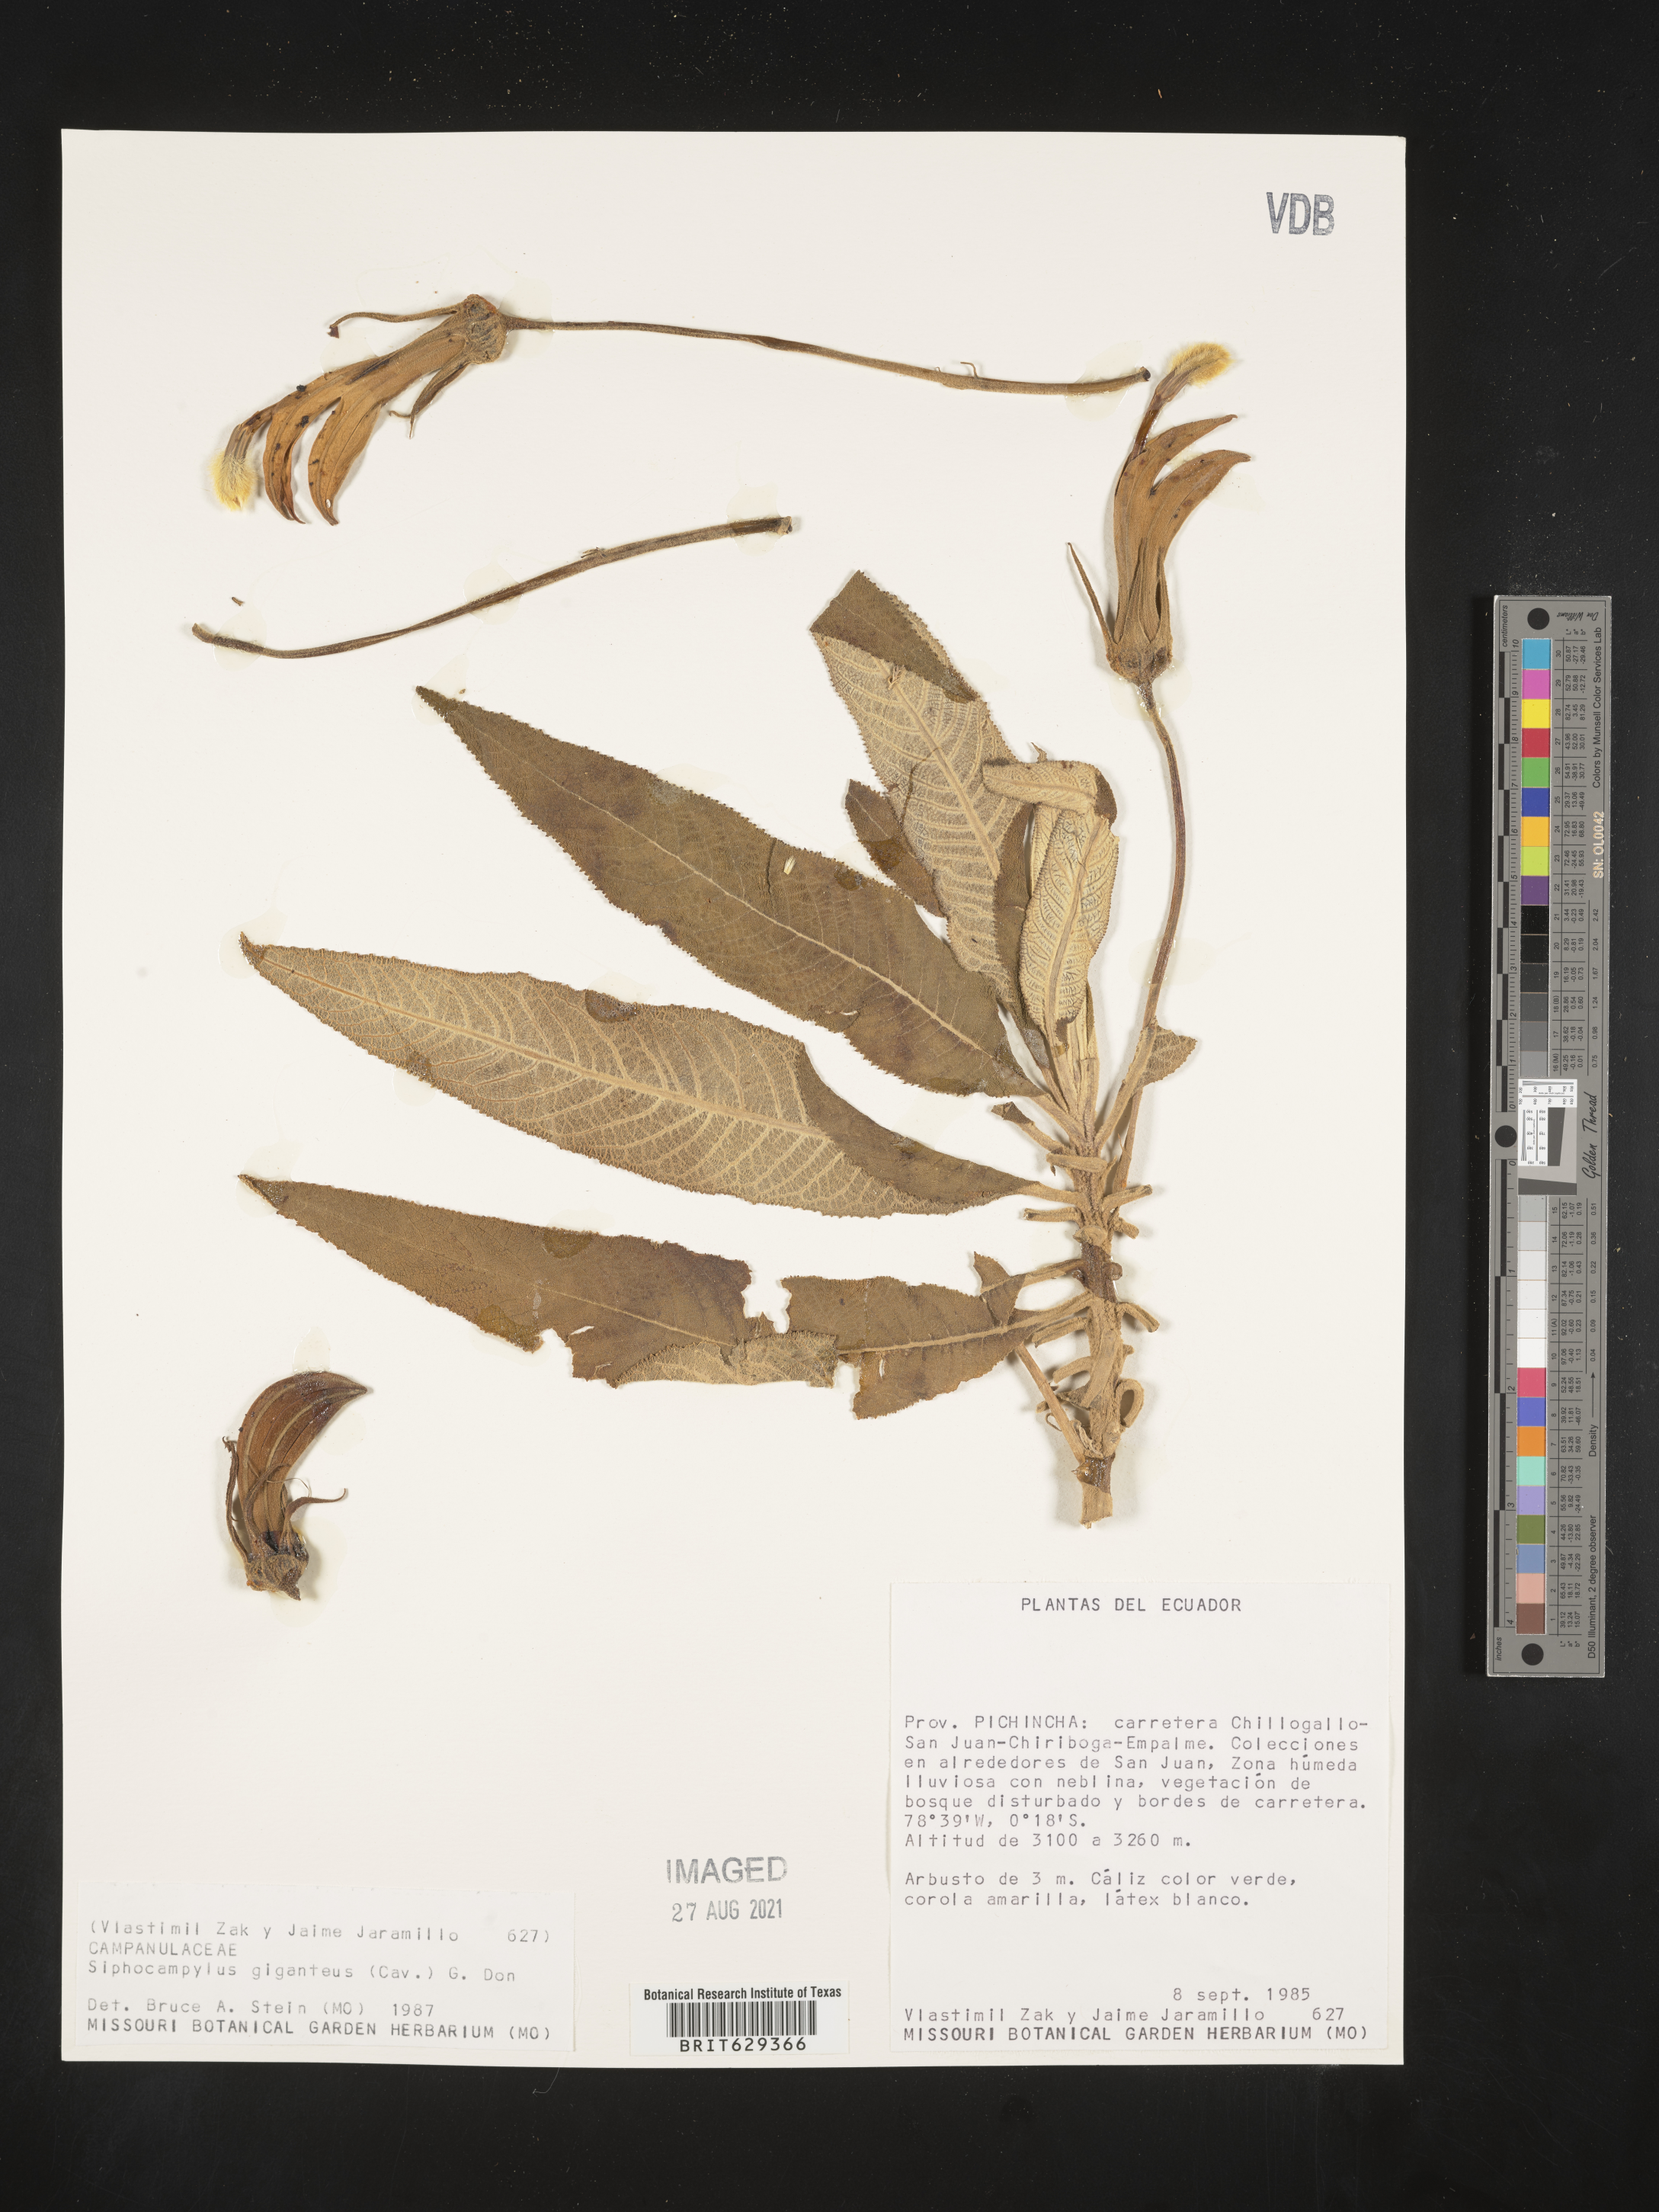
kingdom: Plantae
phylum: Tracheophyta
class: Magnoliopsida
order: Asterales
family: Campanulaceae
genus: Siphocampylus
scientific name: Siphocampylus giganteus
